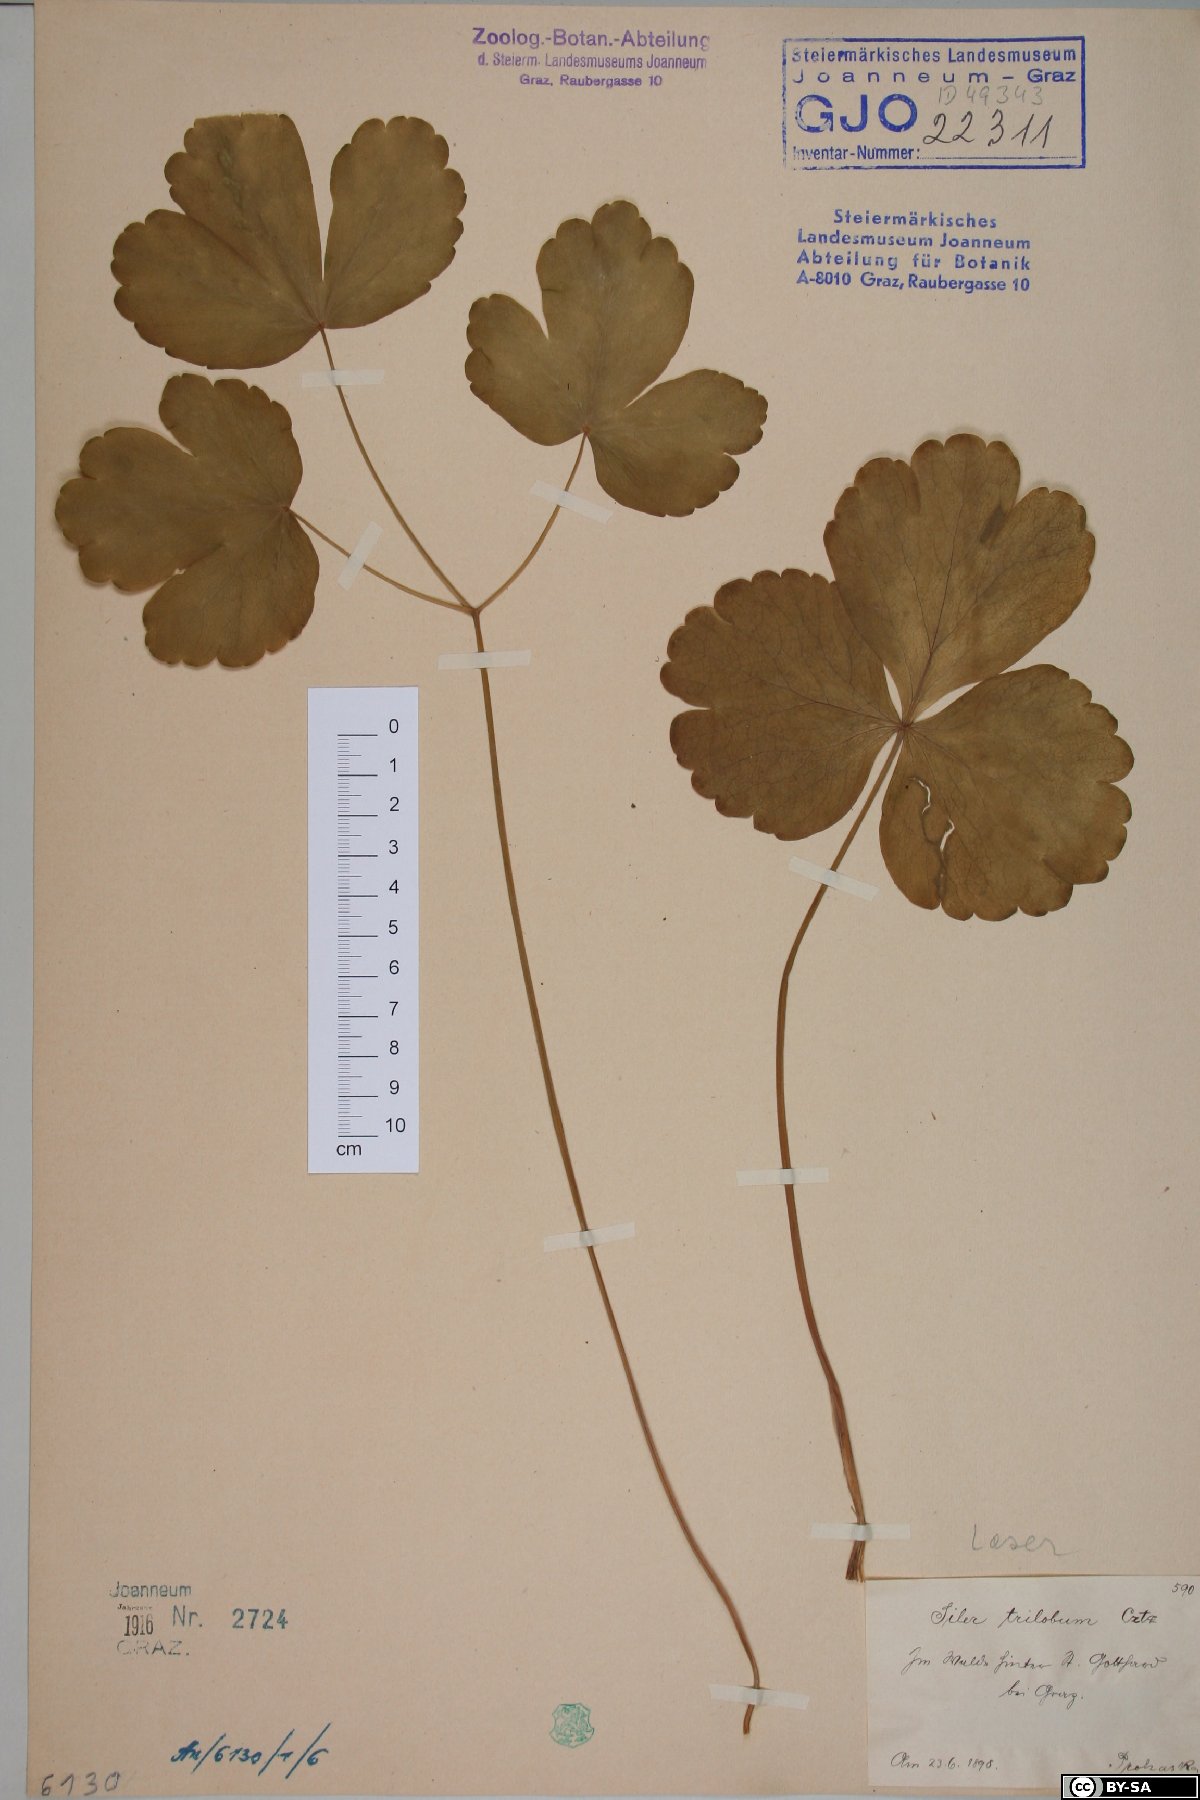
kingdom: Plantae
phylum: Tracheophyta
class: Magnoliopsida
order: Apiales
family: Apiaceae
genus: Laser
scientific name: Laser trilobum
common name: Laser
